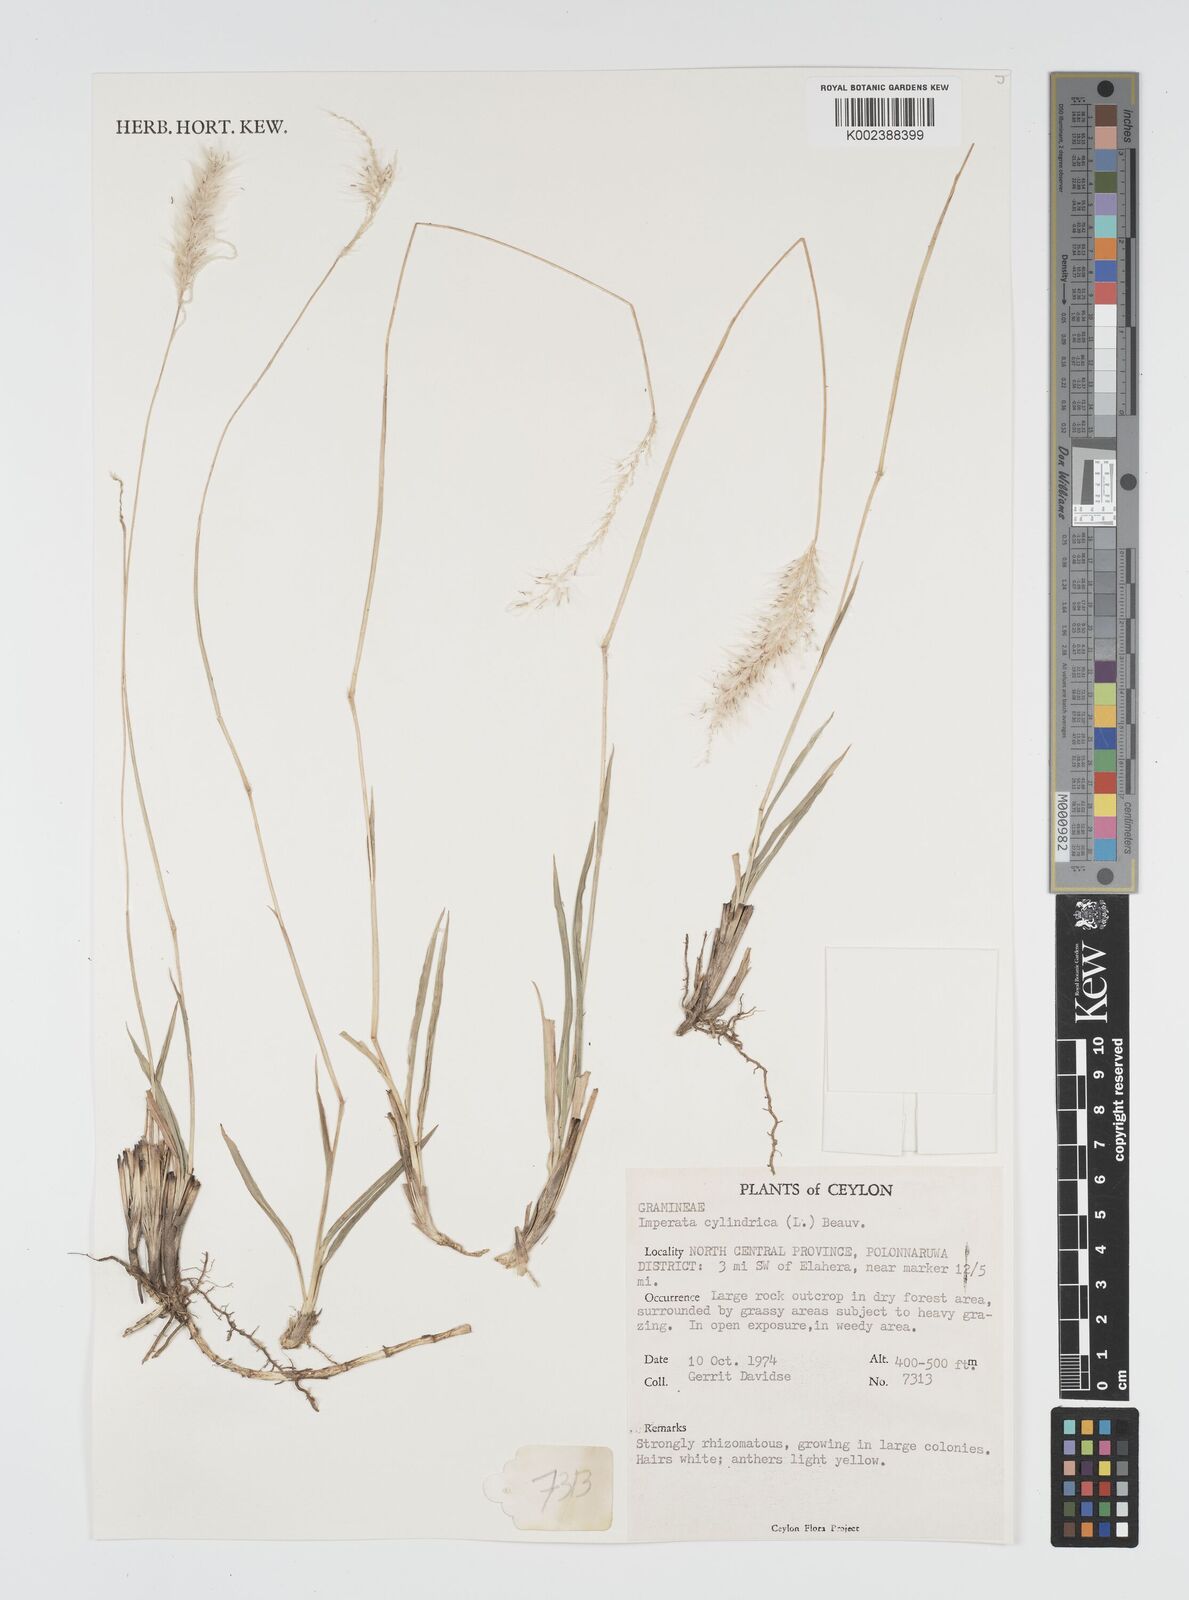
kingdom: Plantae
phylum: Tracheophyta
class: Liliopsida
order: Poales
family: Poaceae
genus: Imperata
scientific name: Imperata cylindrica
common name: Cogongrass
